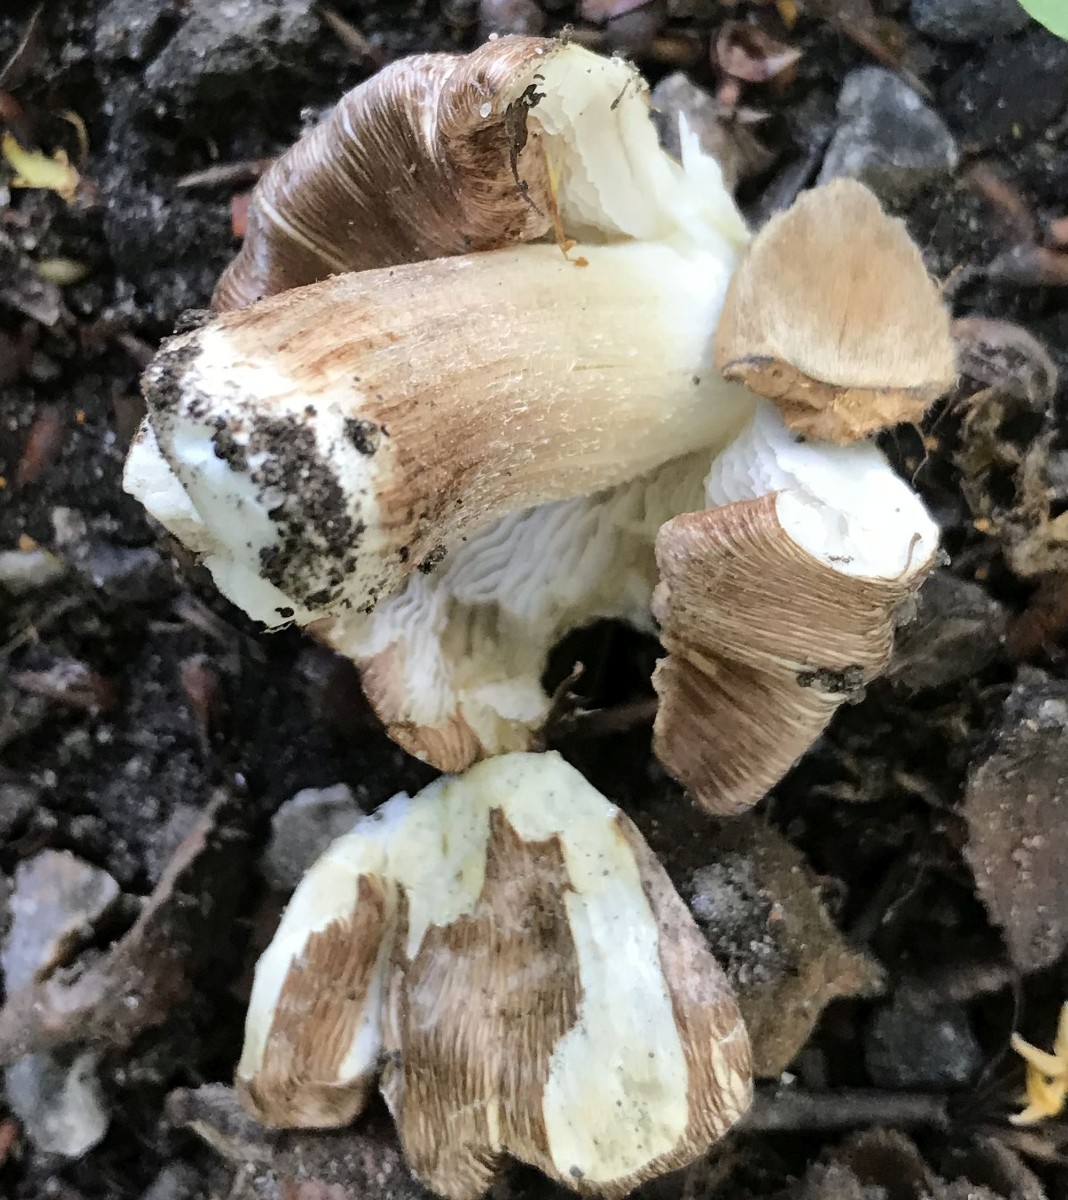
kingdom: Fungi
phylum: Basidiomycota
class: Agaricomycetes
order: Agaricales
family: Inocybaceae
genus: Inocybe
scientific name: Inocybe
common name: trævlhat
